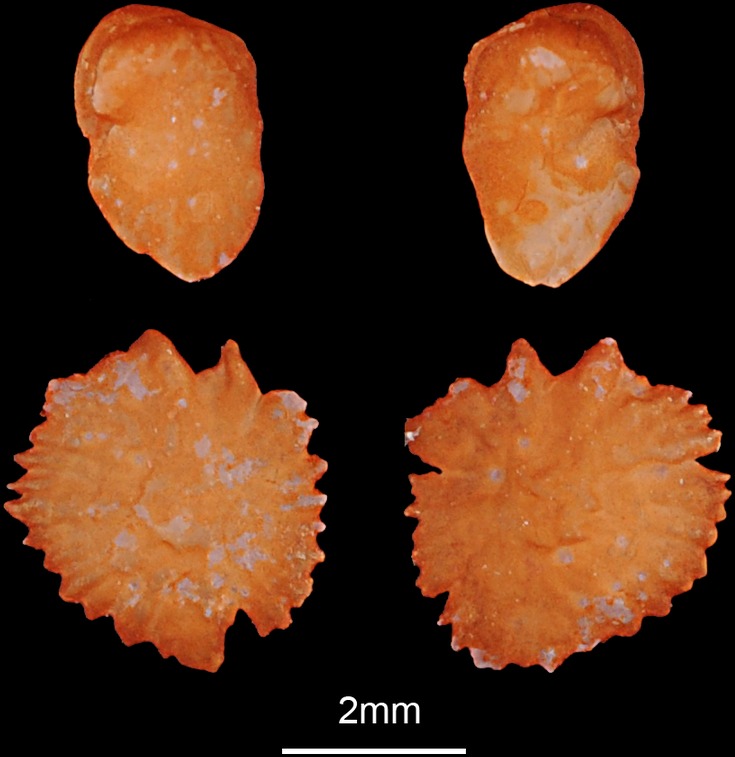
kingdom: Animalia
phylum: Chordata
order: Cypriniformes
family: Cyprinidae
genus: Abramis
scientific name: Abramis brama
